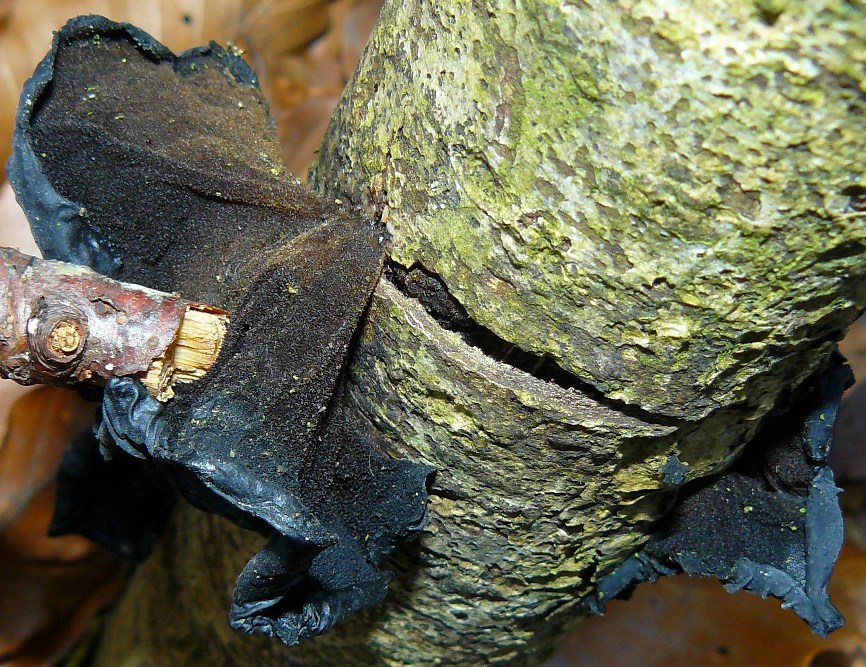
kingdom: Fungi
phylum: Basidiomycota
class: Agaricomycetes
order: Auriculariales
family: Auriculariaceae
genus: Exidia
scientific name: Exidia glandulosa
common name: ege-bævretop
